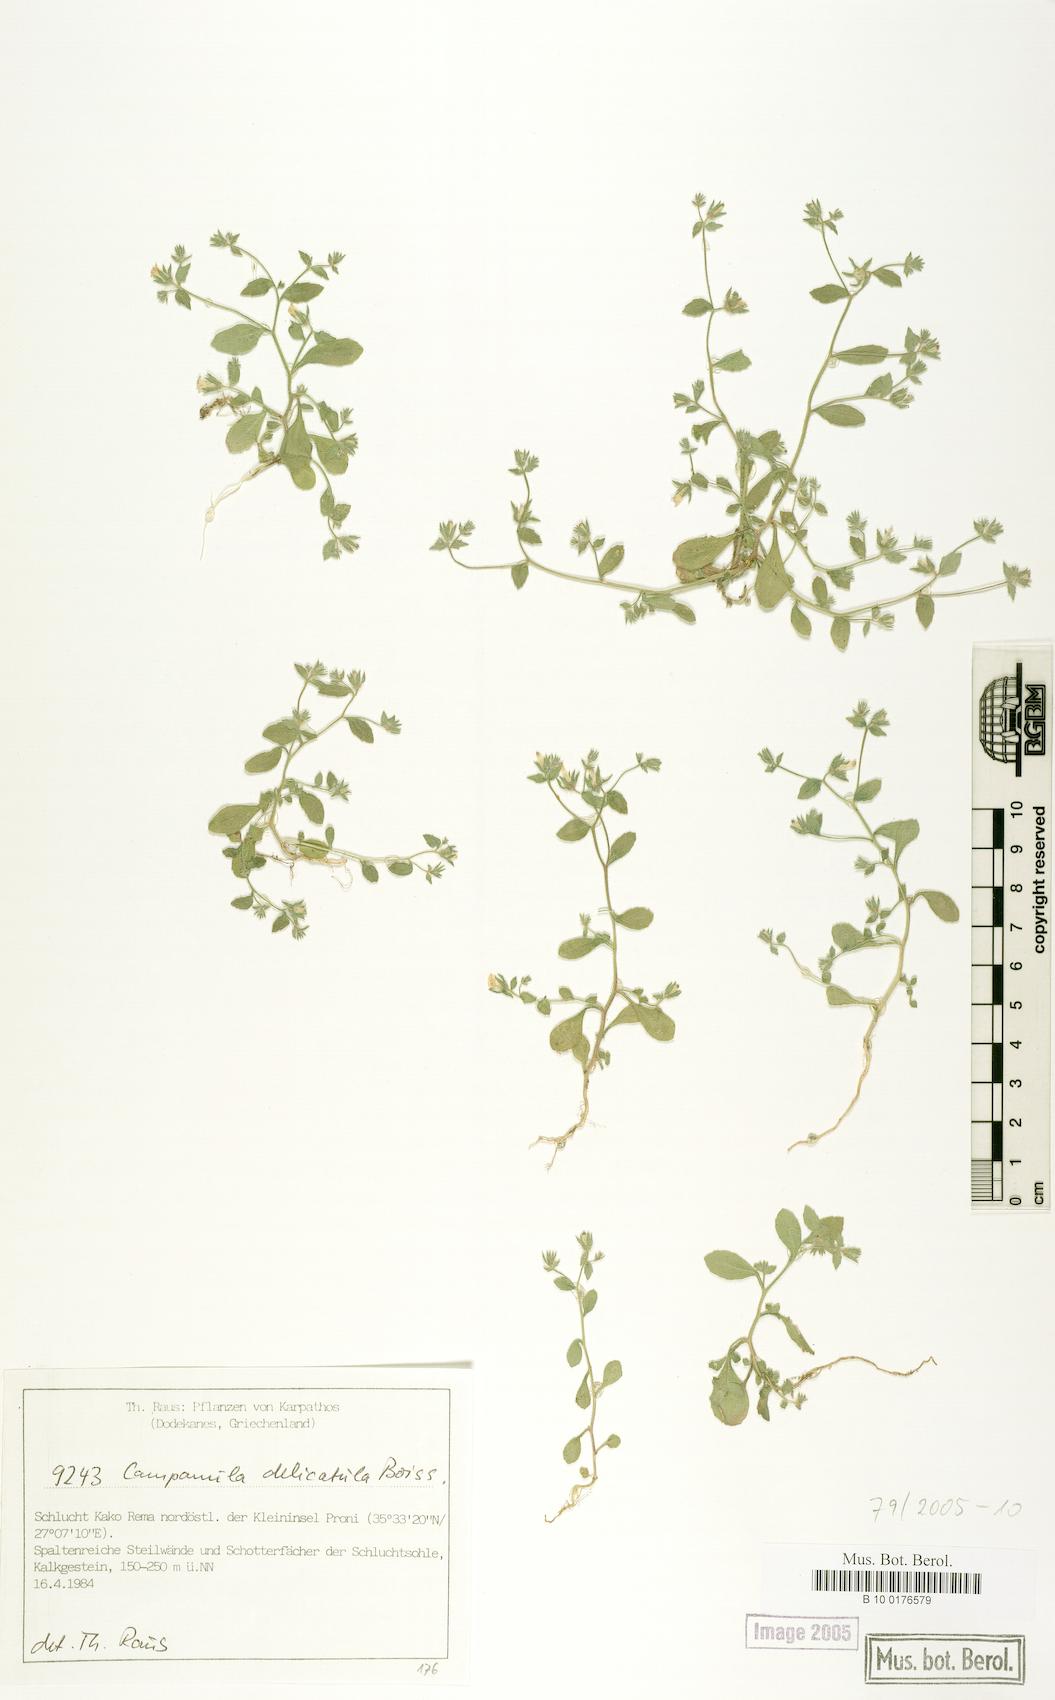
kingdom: Plantae
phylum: Tracheophyta
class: Magnoliopsida
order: Asterales
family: Campanulaceae
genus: Campanula
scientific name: Campanula delicatula
